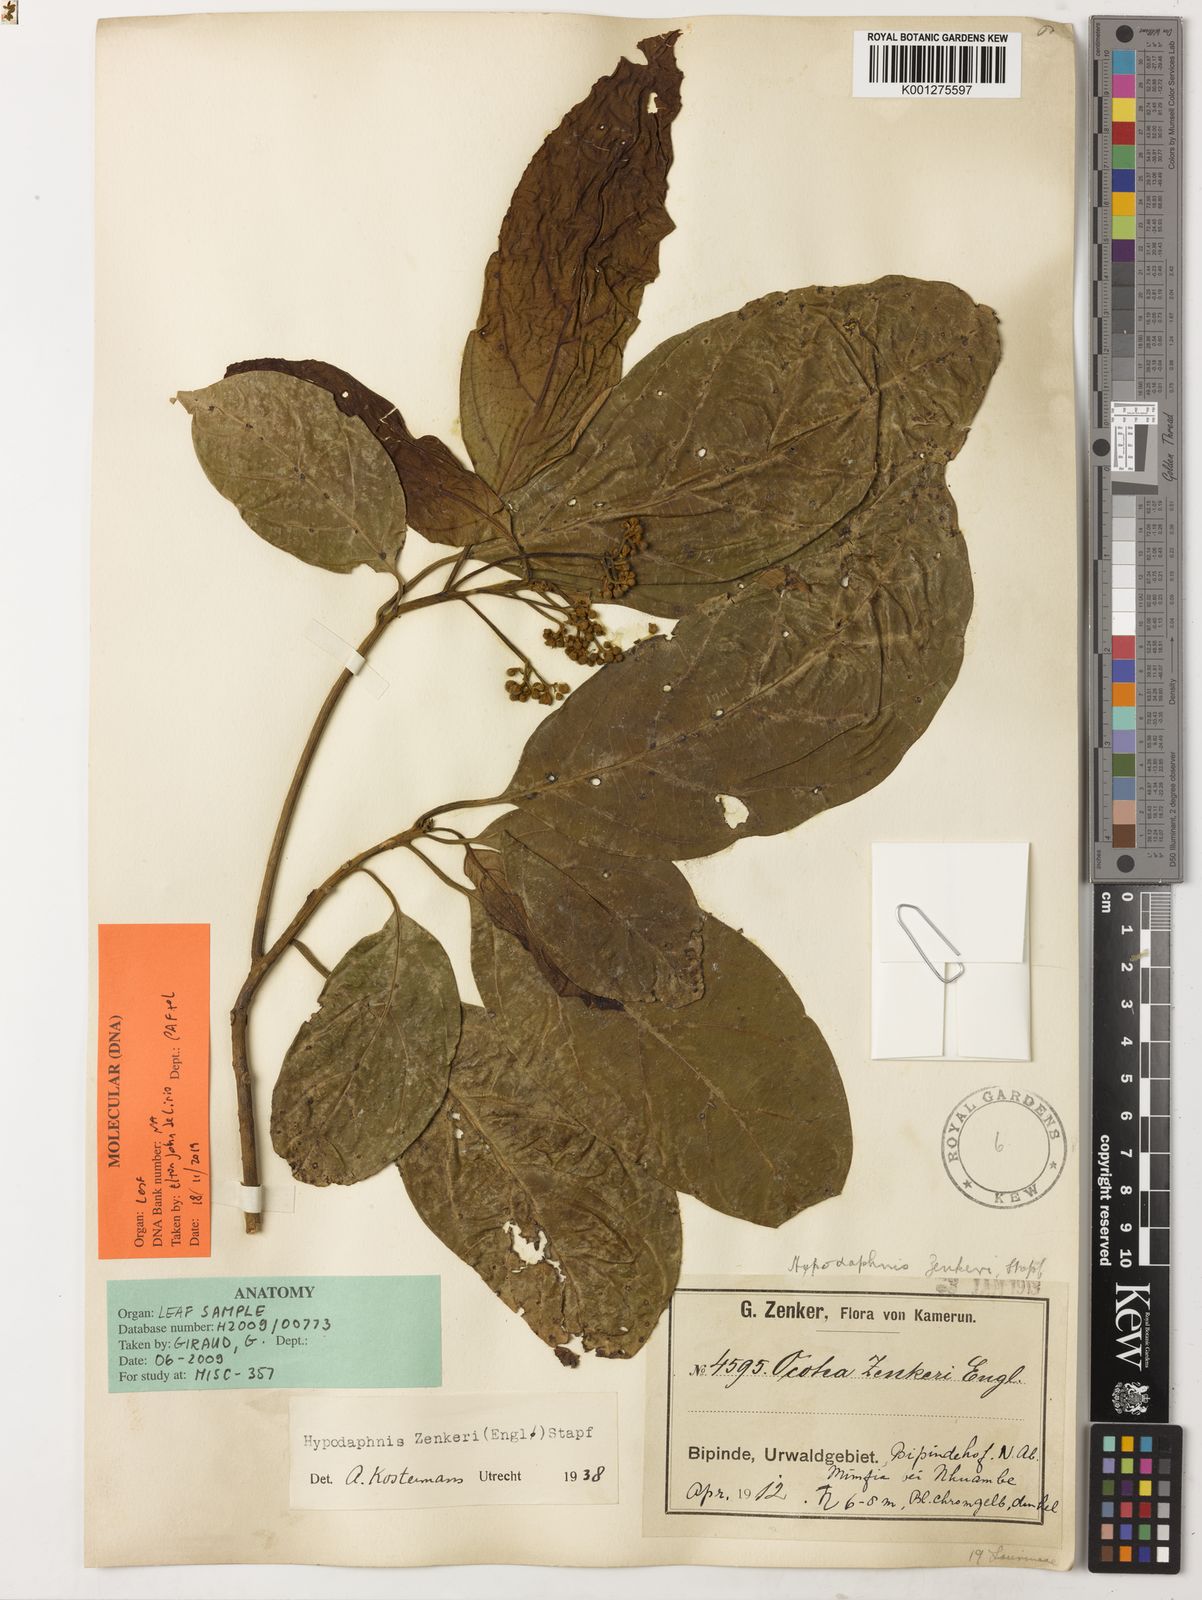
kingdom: Plantae
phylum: Tracheophyta
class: Magnoliopsida
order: Laurales
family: Lauraceae
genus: Hypodaphnis
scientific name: Hypodaphnis zenkeri
